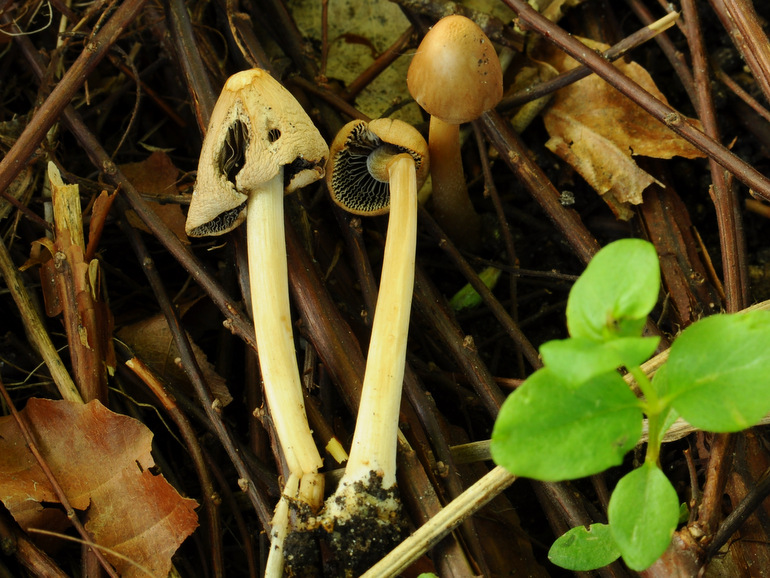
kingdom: Fungi
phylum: Basidiomycota
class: Agaricomycetes
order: Agaricales
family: Psathyrellaceae
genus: Parasola
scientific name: Parasola conopilea
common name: kegle-hjulhat
